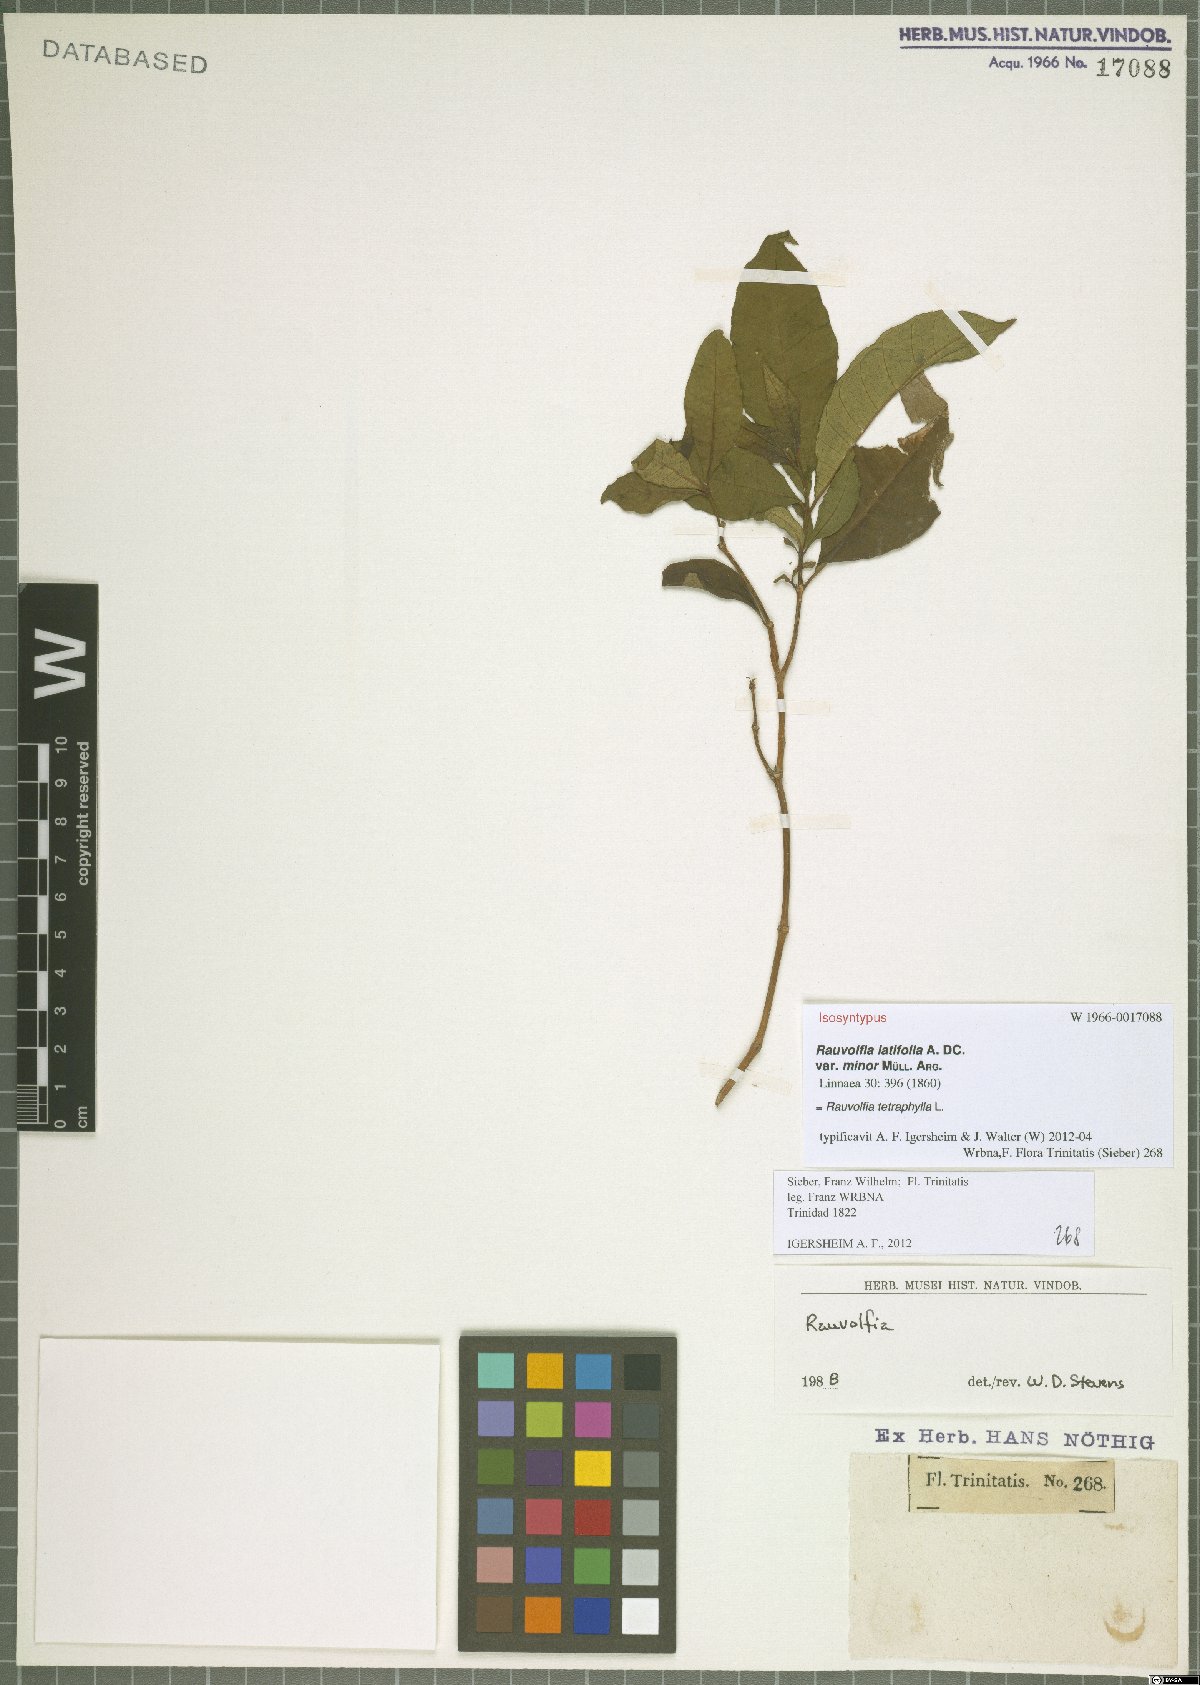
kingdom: Plantae
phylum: Tracheophyta
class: Magnoliopsida
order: Gentianales
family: Apocynaceae
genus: Rauvolfia
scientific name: Rauvolfia tetraphylla
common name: Four-leaf devil-pepper
